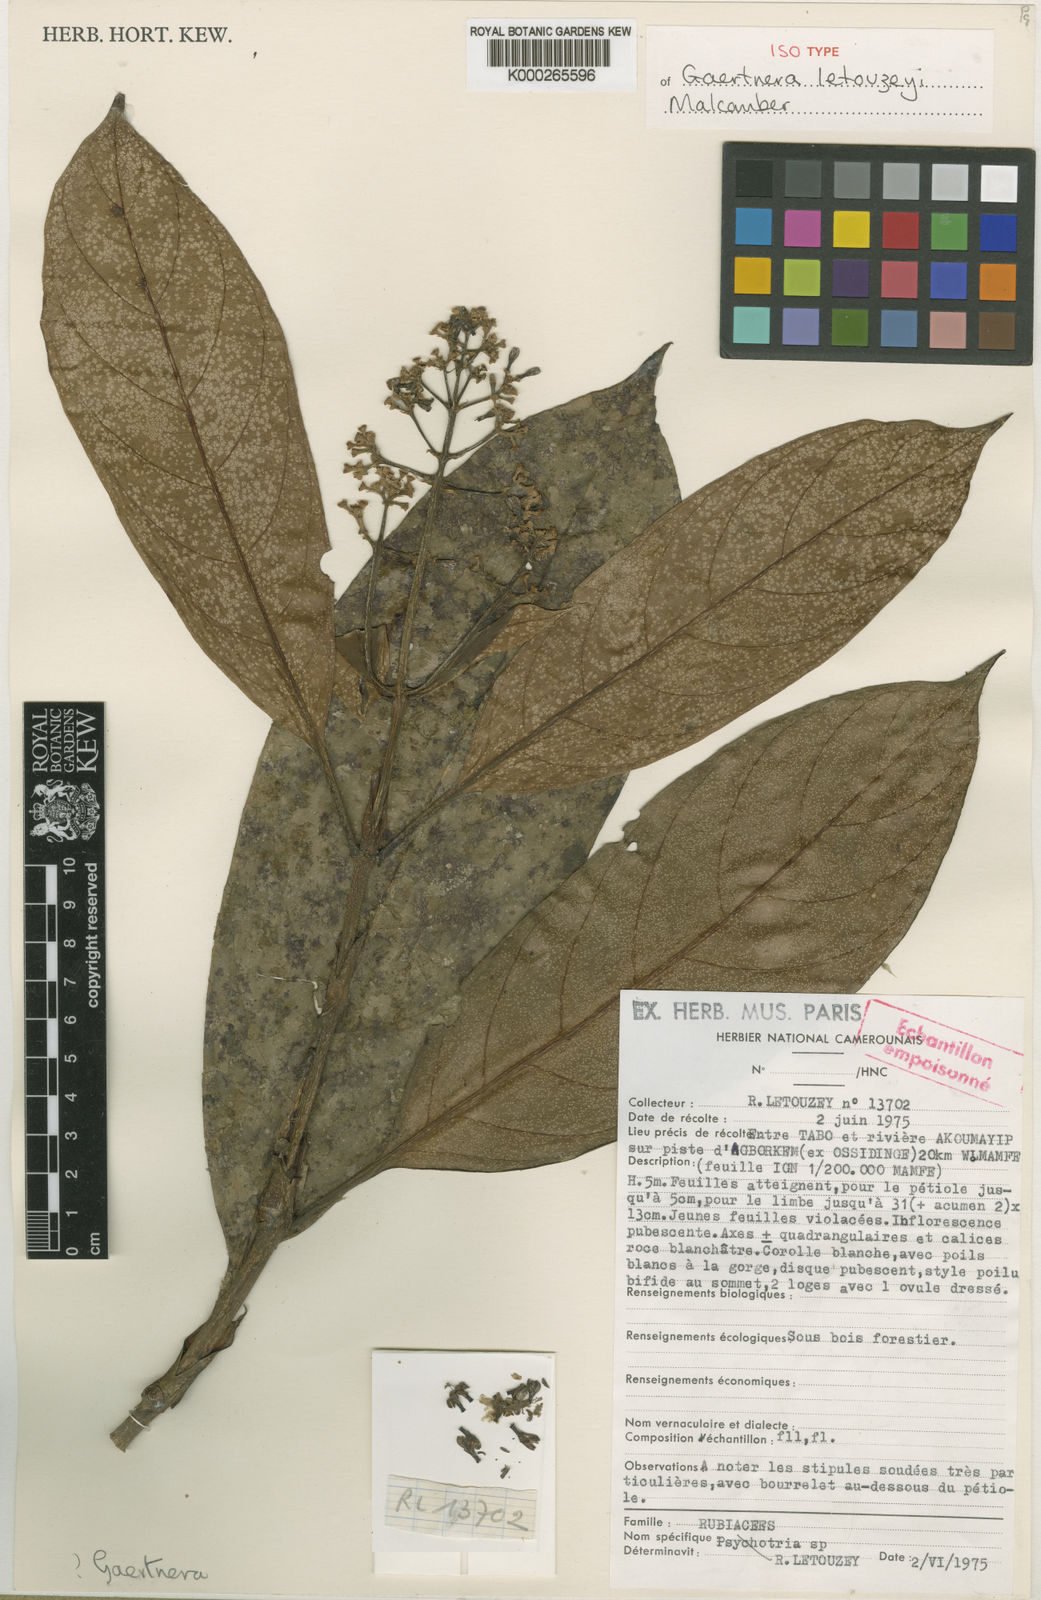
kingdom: Plantae
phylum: Tracheophyta
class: Magnoliopsida
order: Gentianales
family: Rubiaceae
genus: Gaertnera
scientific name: Gaertnera letouzeyi
